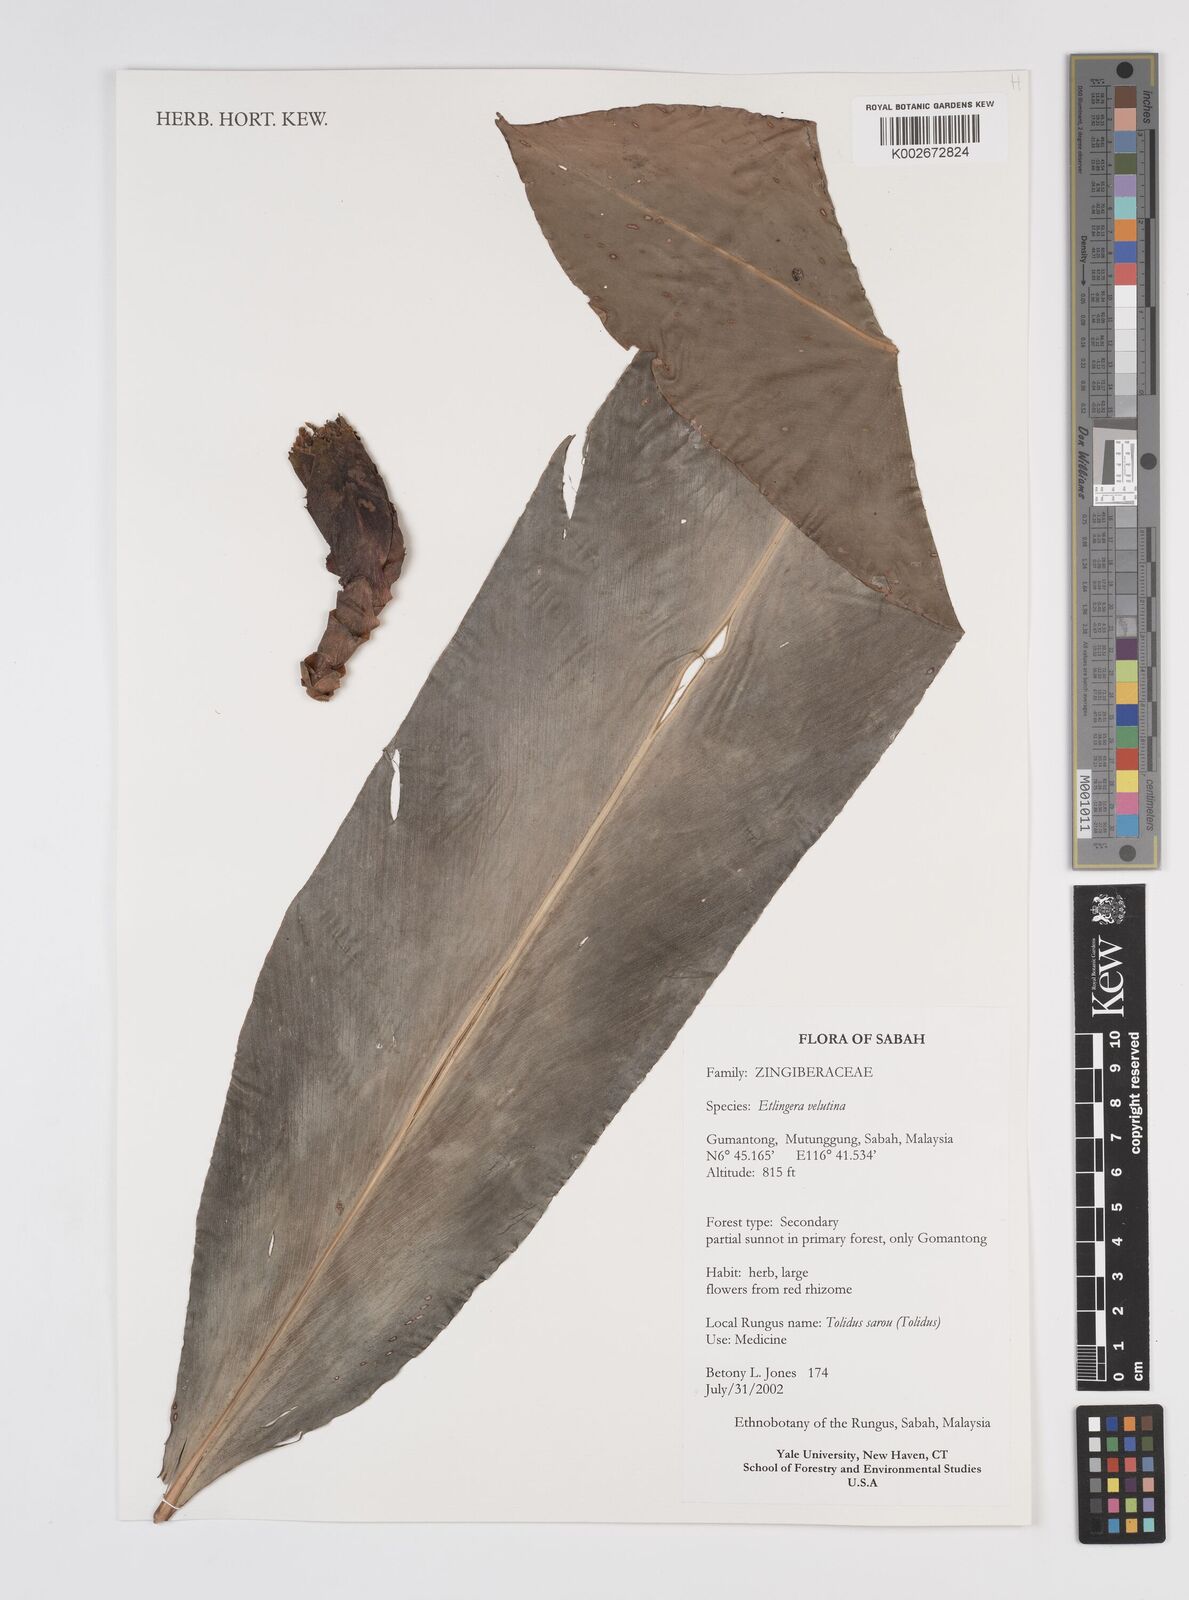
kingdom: Plantae
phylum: Tracheophyta
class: Liliopsida
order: Zingiberales
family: Zingiberaceae
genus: Etlingera
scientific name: Etlingera velutina
